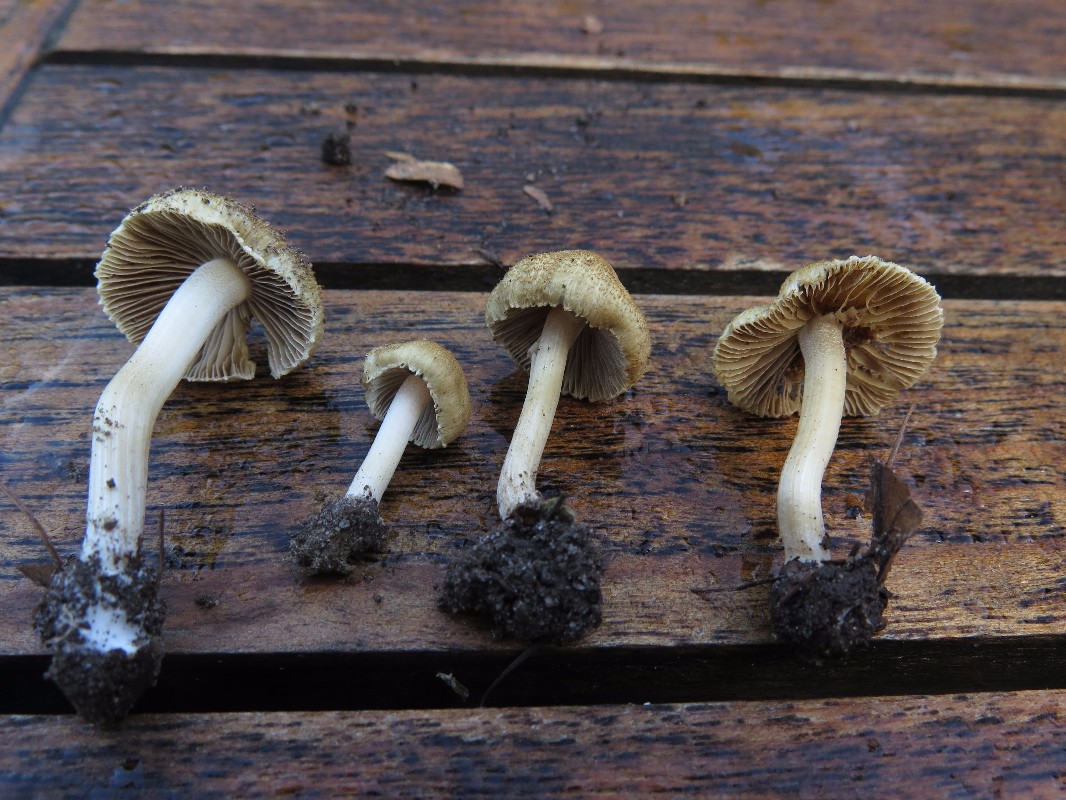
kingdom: Fungi
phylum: Basidiomycota
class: Agaricomycetes
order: Agaricales
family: Inocybaceae
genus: Inocybe
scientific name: Inocybe
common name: trævlhat
